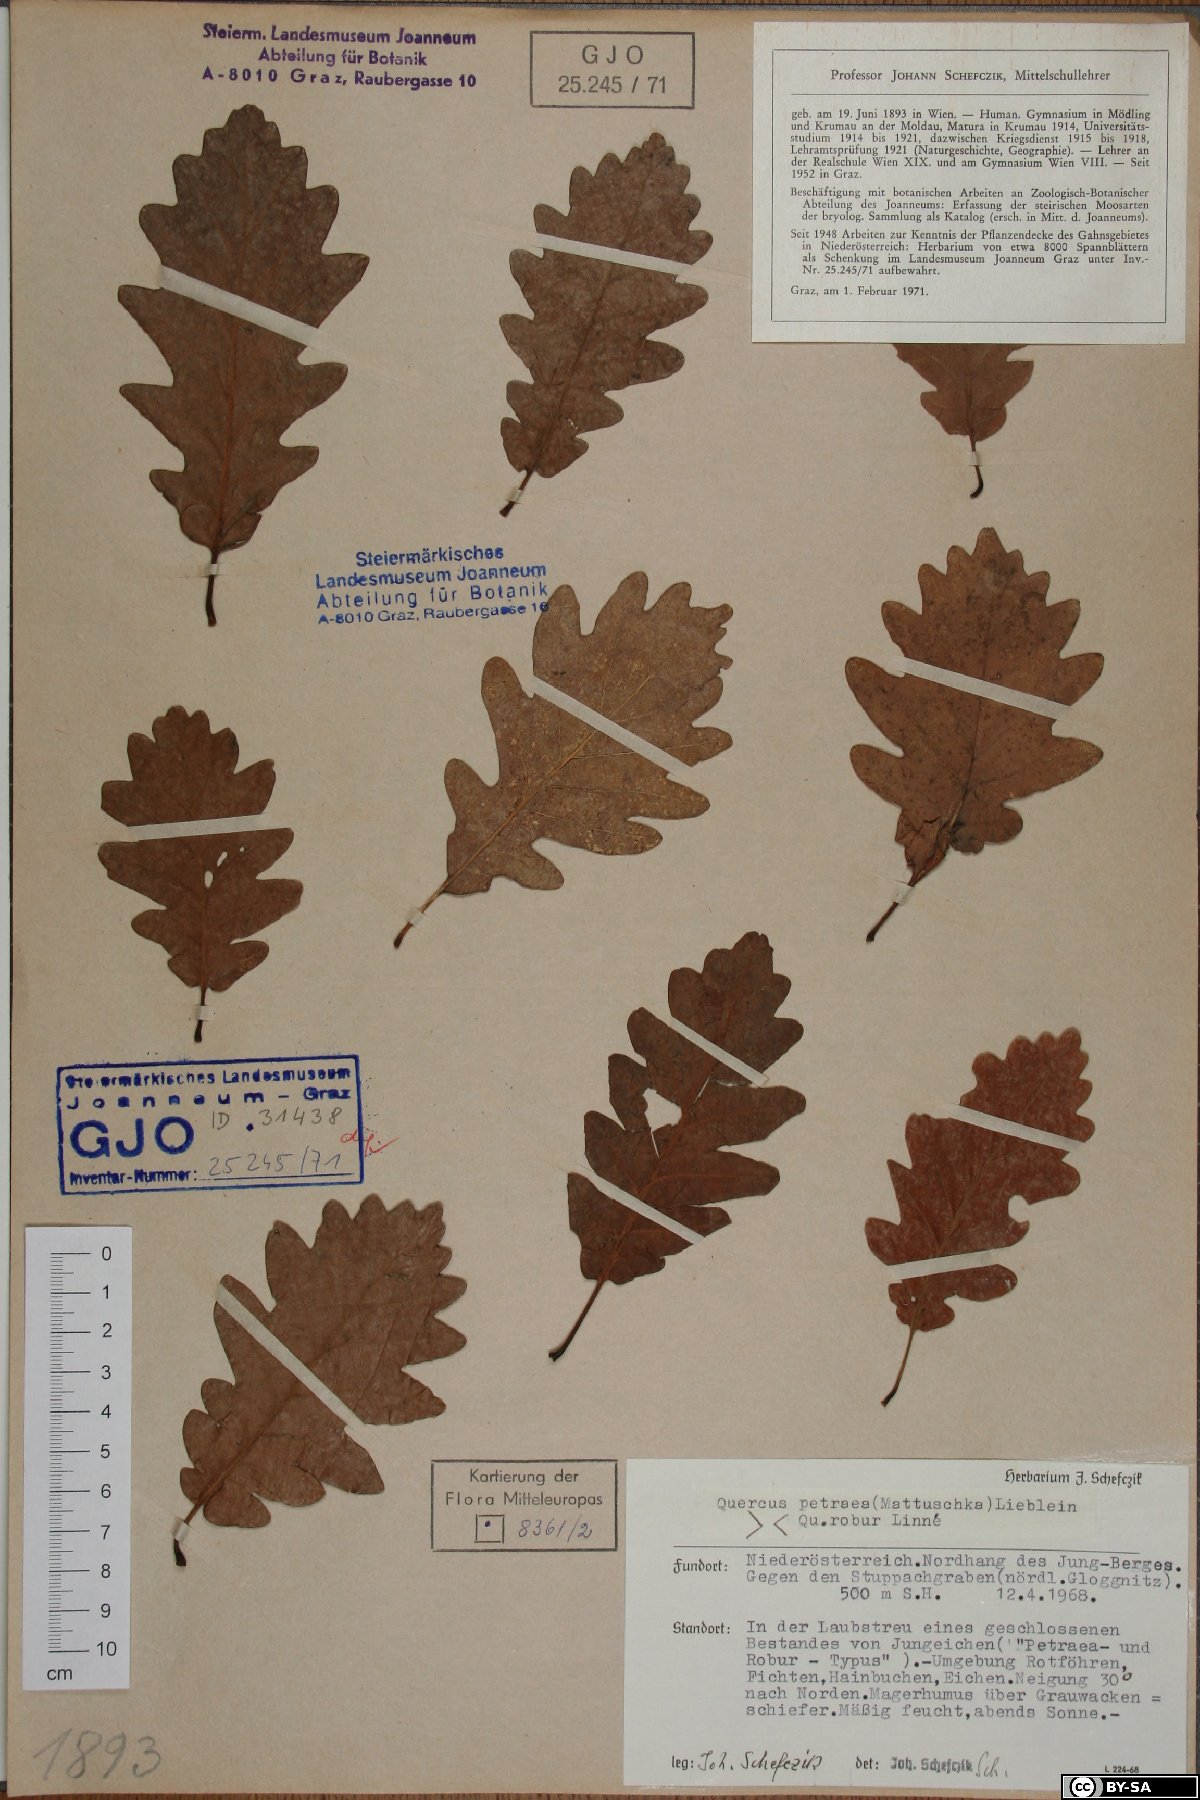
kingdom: Plantae
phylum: Tracheophyta
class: Magnoliopsida
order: Fagales
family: Fagaceae
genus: Quercus
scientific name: Quercus petraea
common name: Sessile oak
